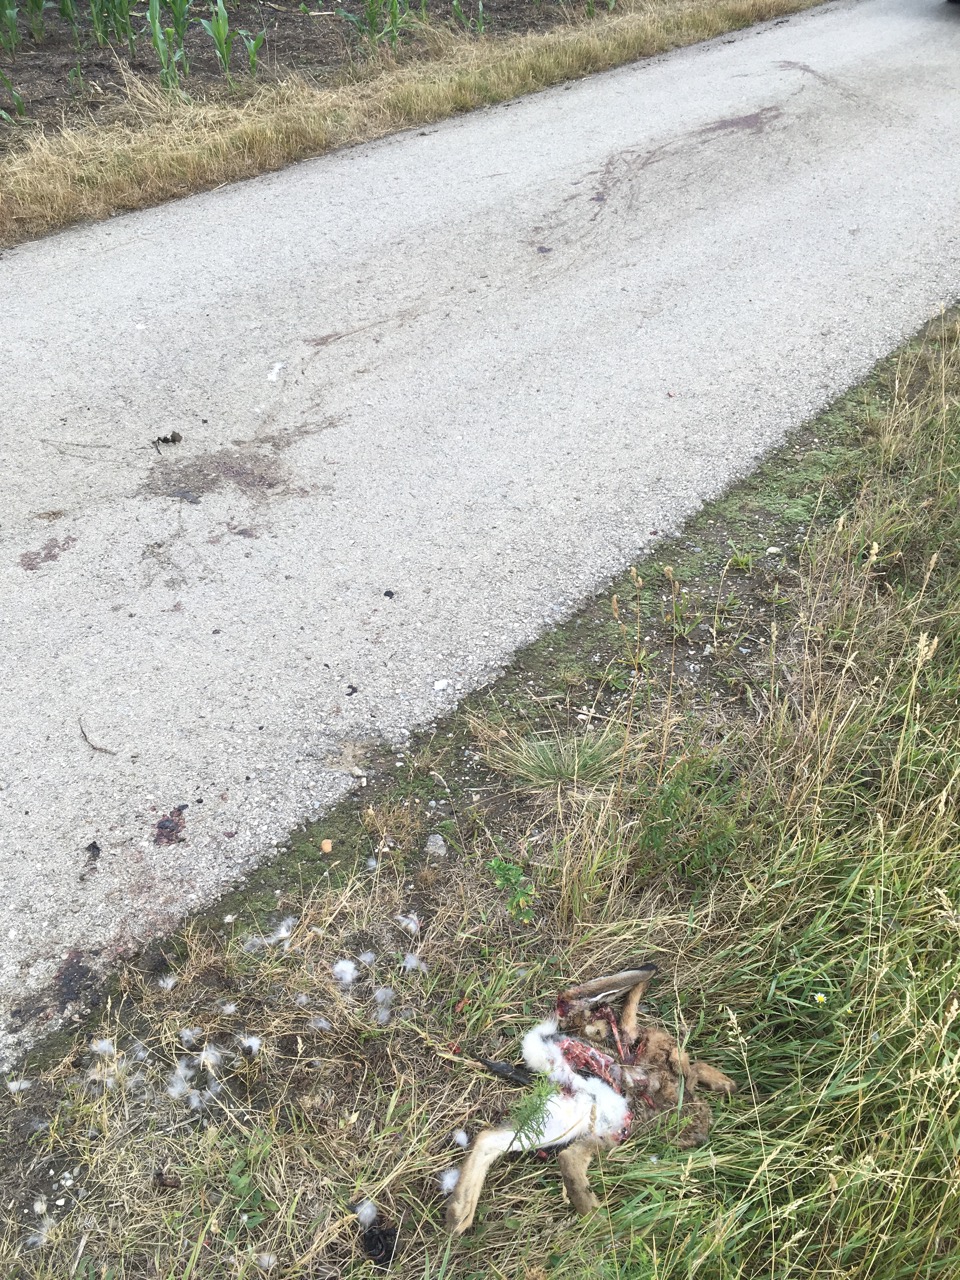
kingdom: Animalia
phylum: Chordata
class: Mammalia
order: Lagomorpha
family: Leporidae
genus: Lepus
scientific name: Lepus europaeus
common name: European hare
